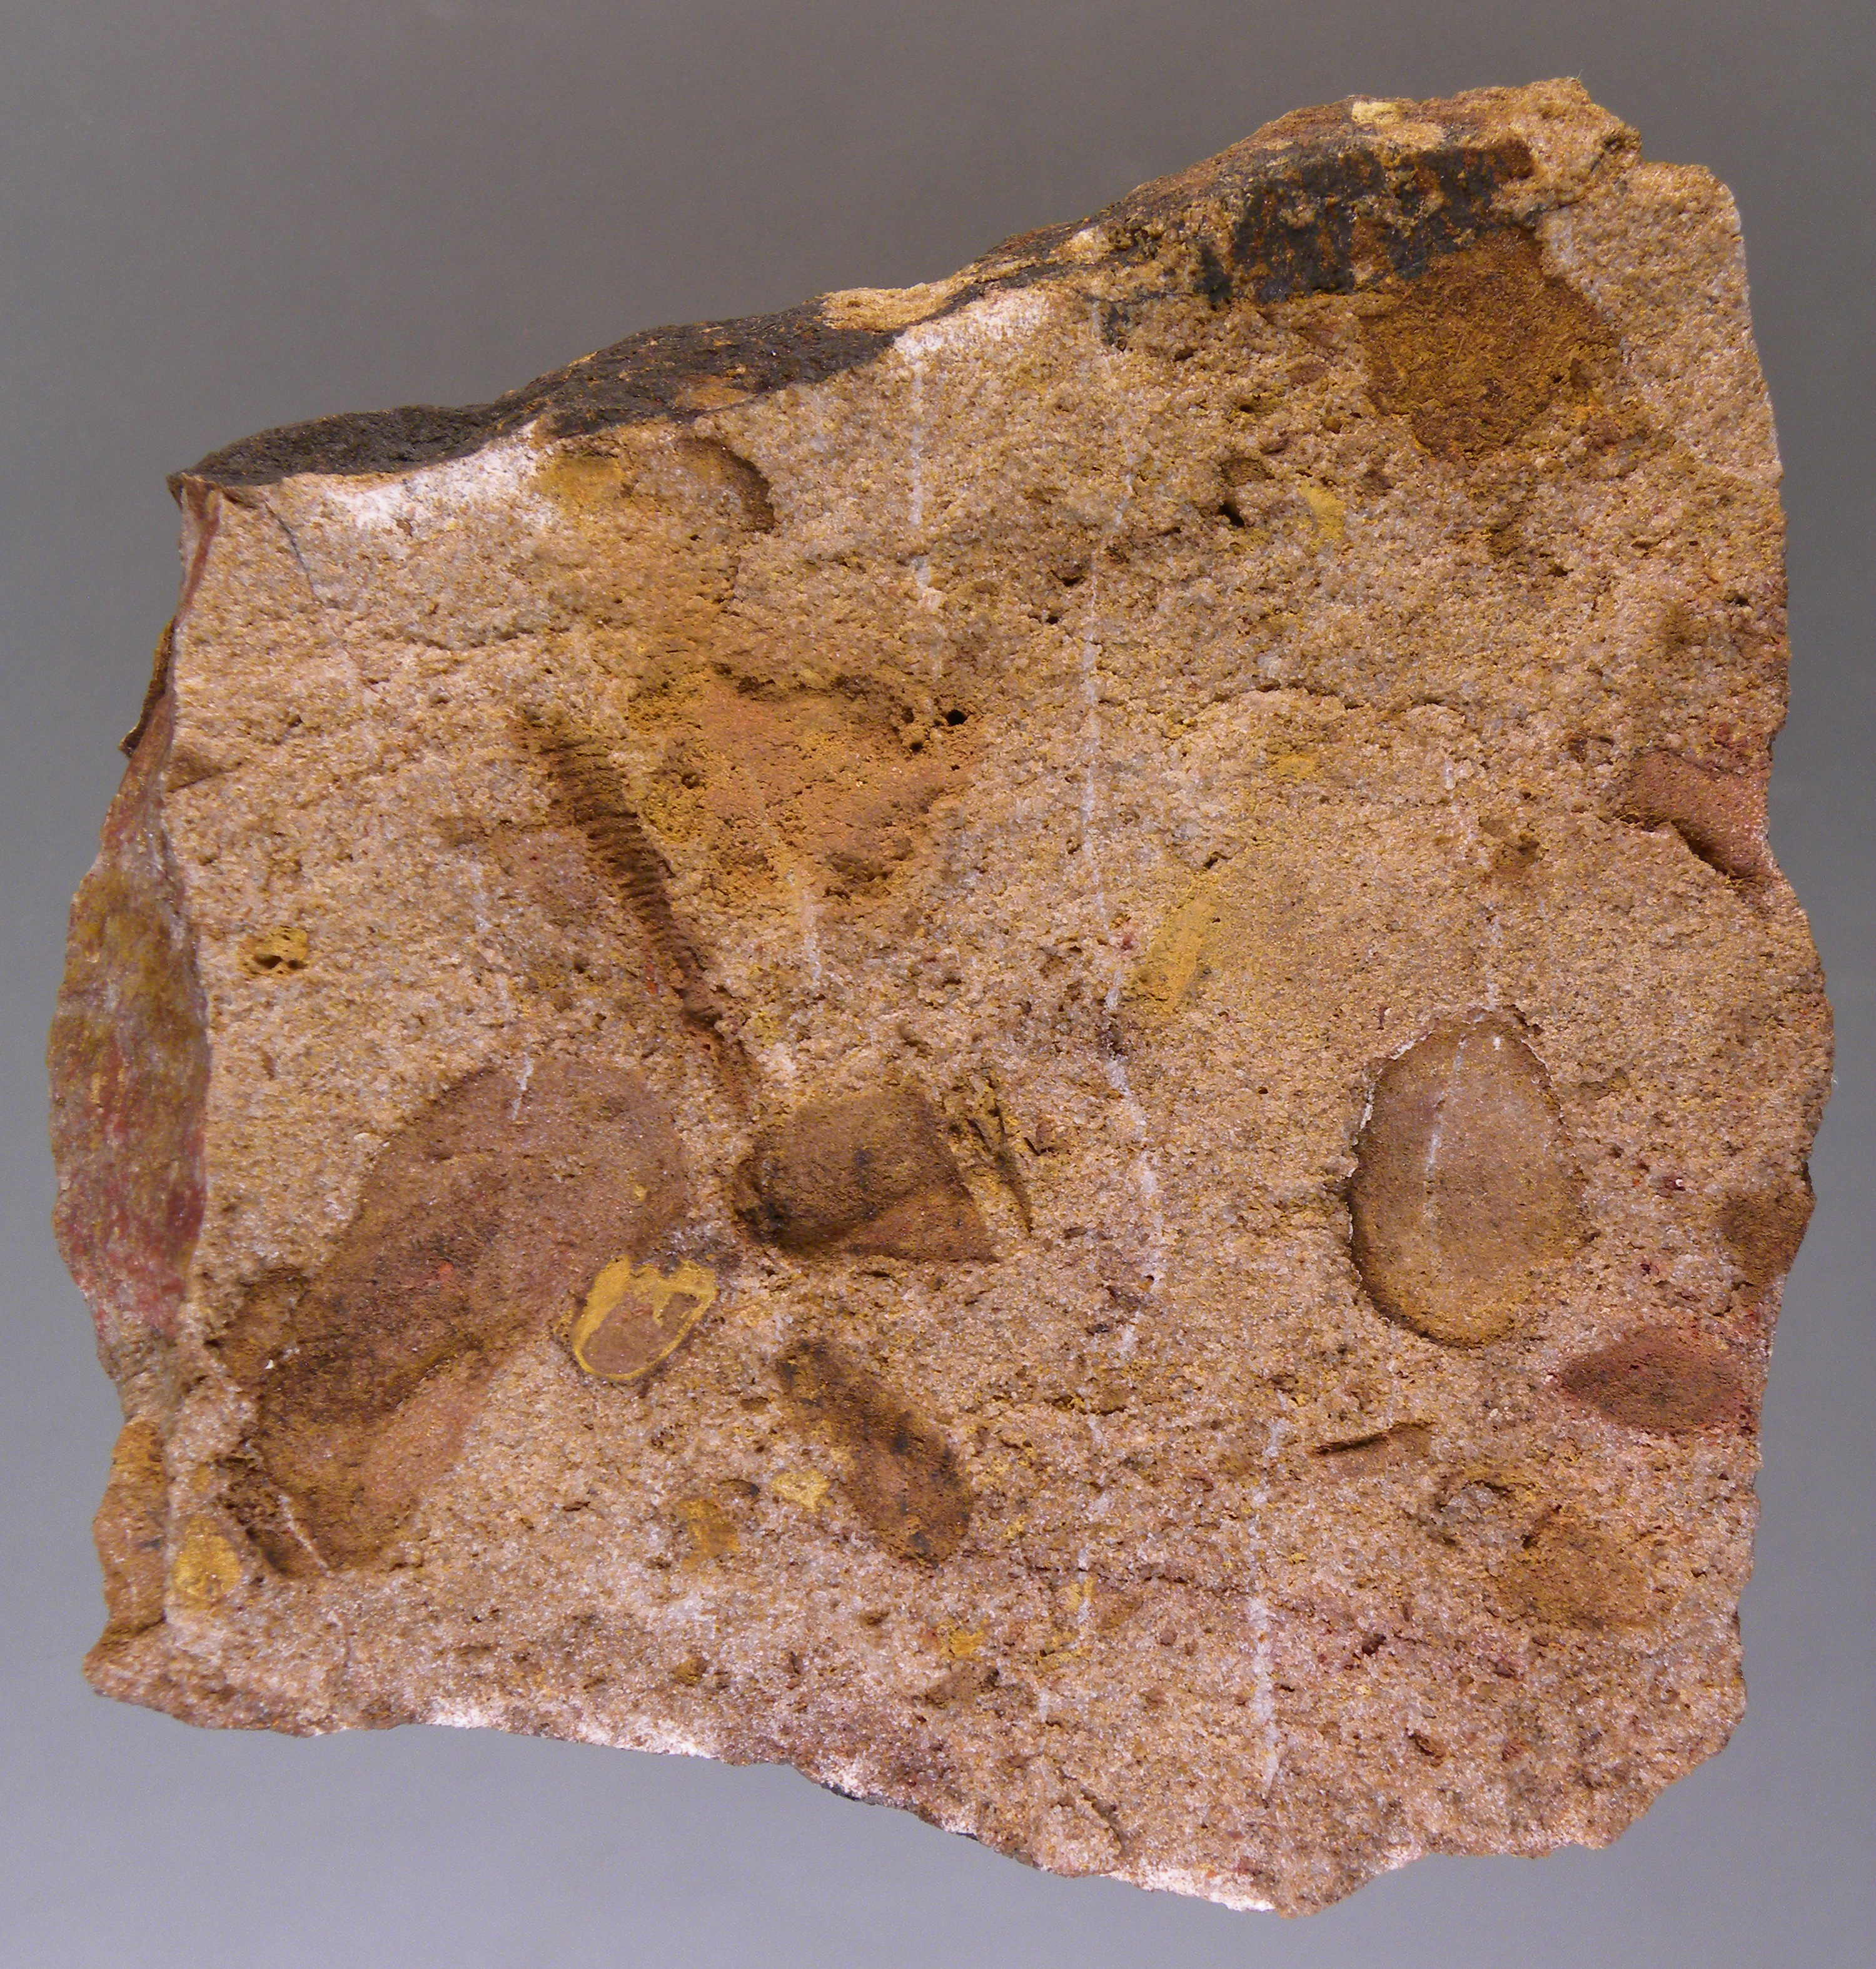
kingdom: Animalia
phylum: Mollusca
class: Bivalvia
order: Modiomorphida
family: Modiomorphidae
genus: Modiomorpha
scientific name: Modiomorpha
